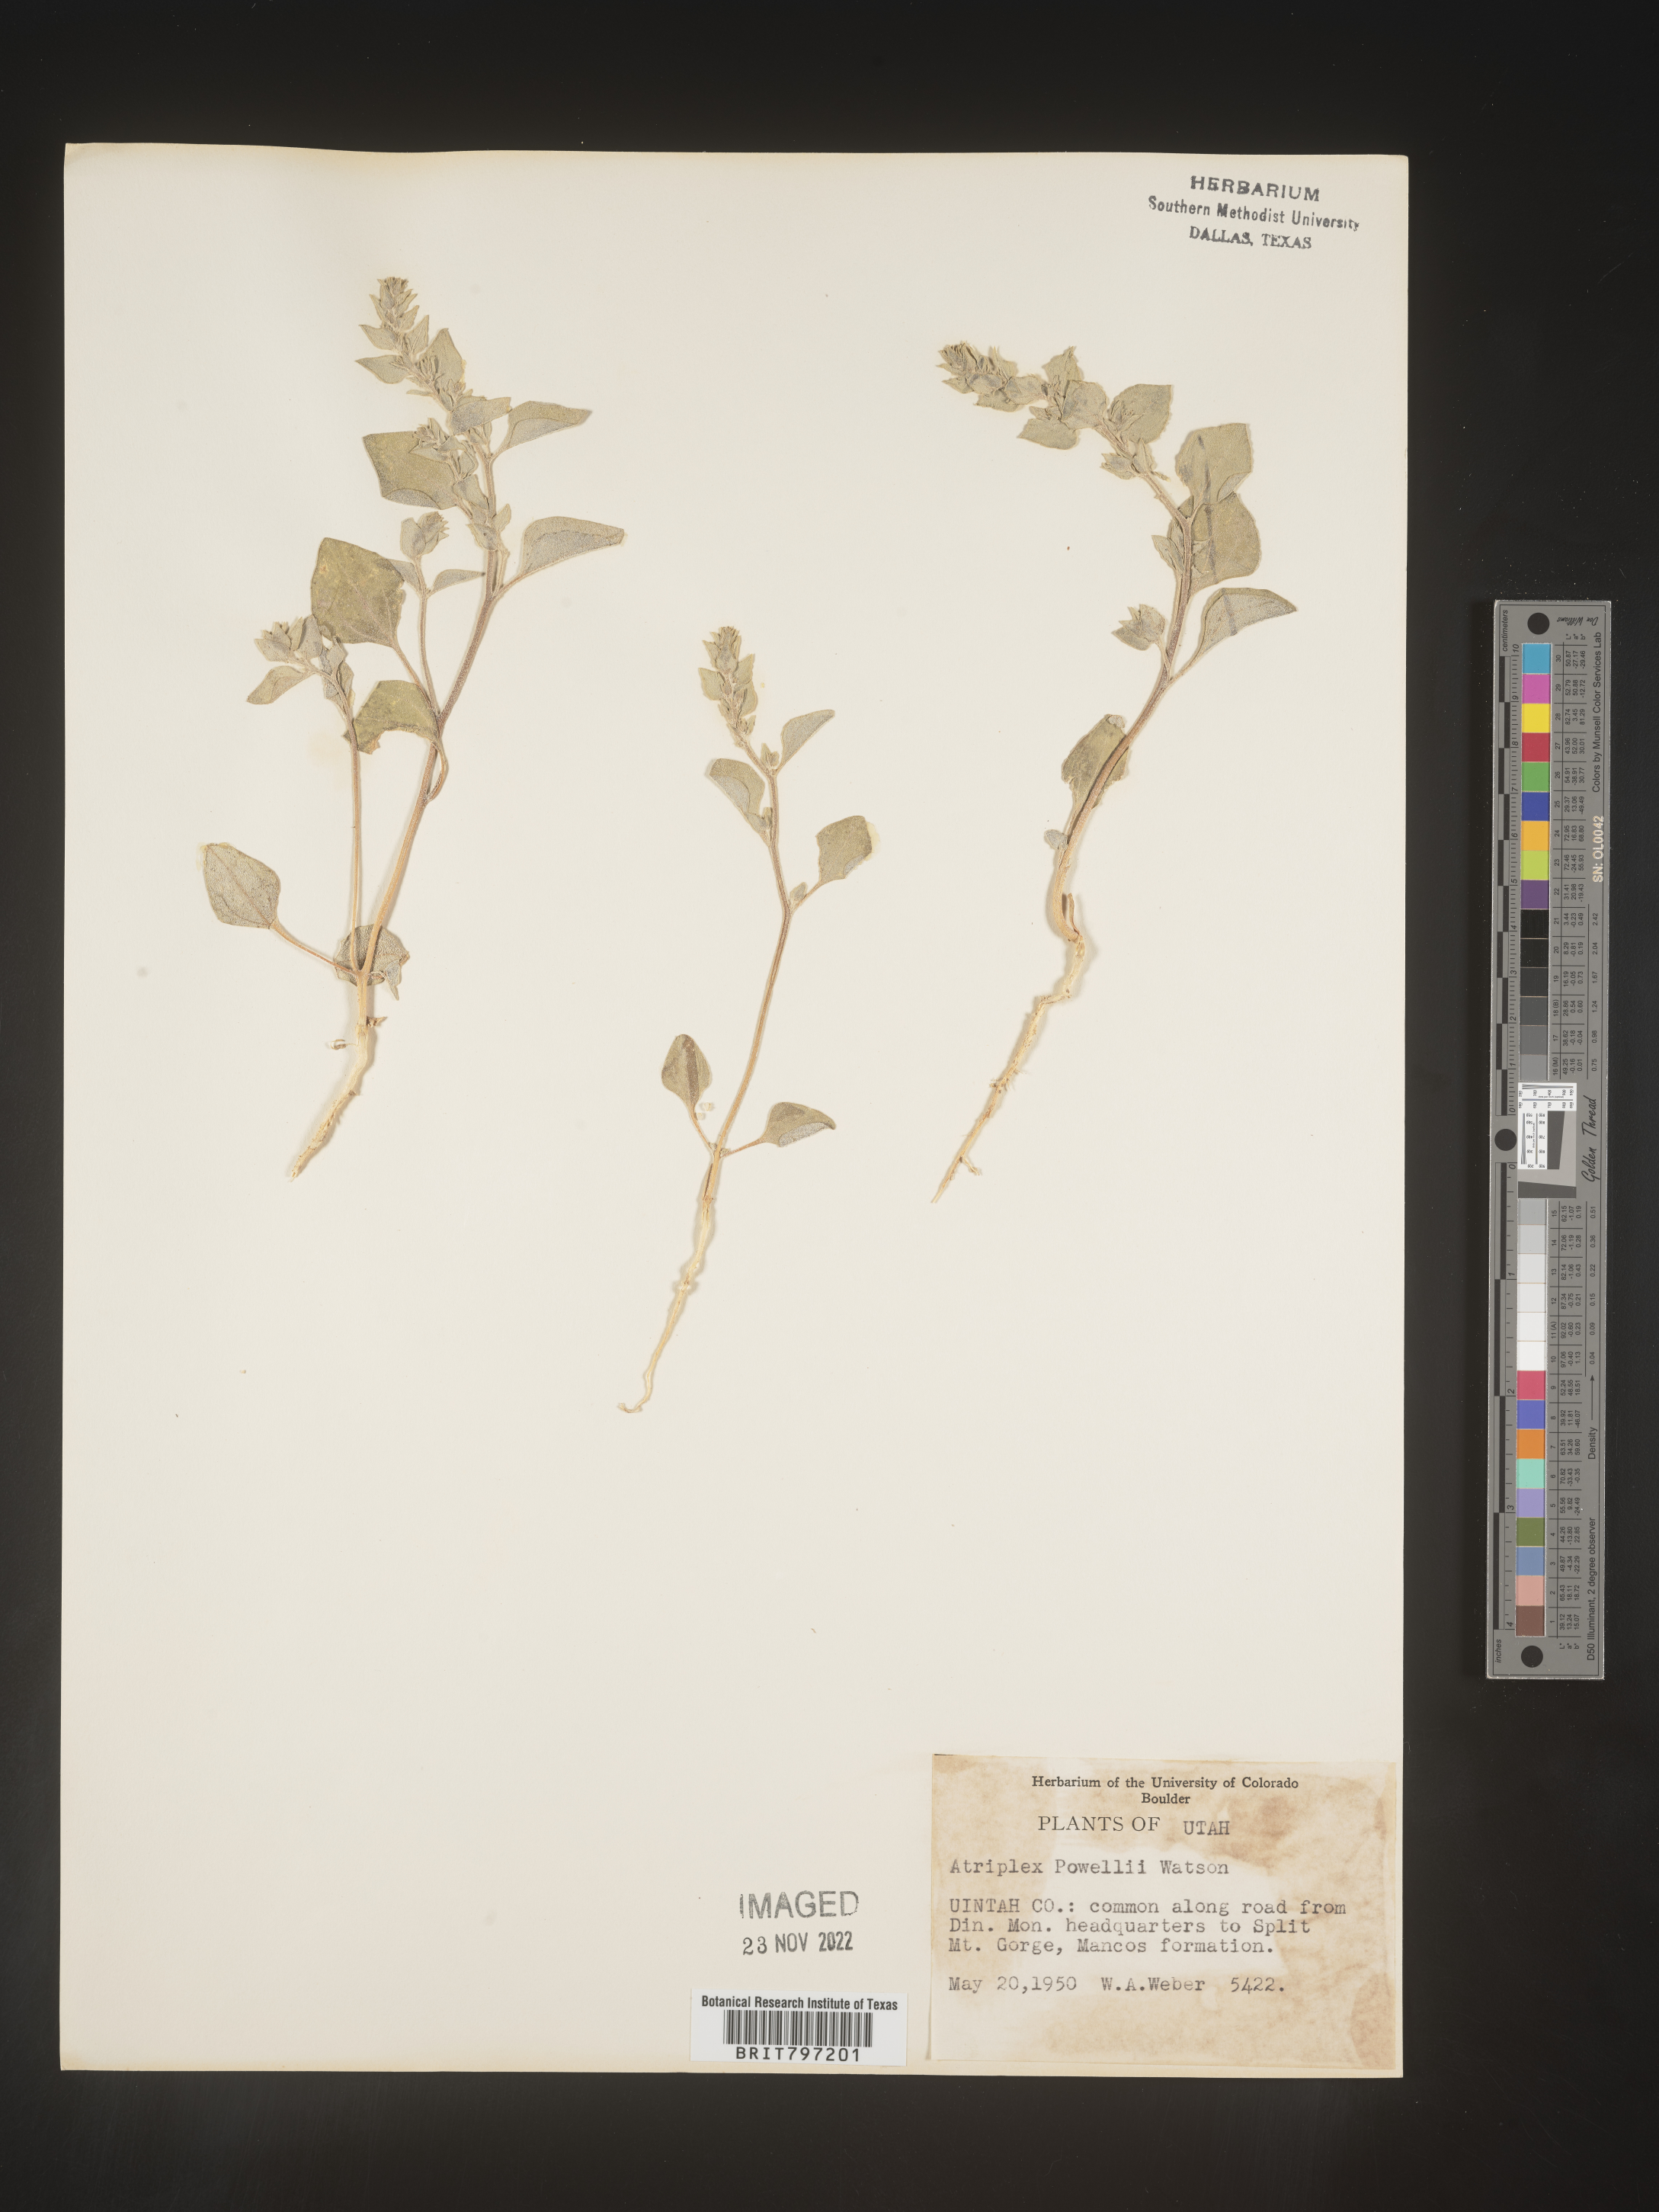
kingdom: Plantae
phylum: Tracheophyta
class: Magnoliopsida
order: Caryophyllales
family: Amaranthaceae
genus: Atriplex
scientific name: Atriplex powellii
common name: Powell's orache
